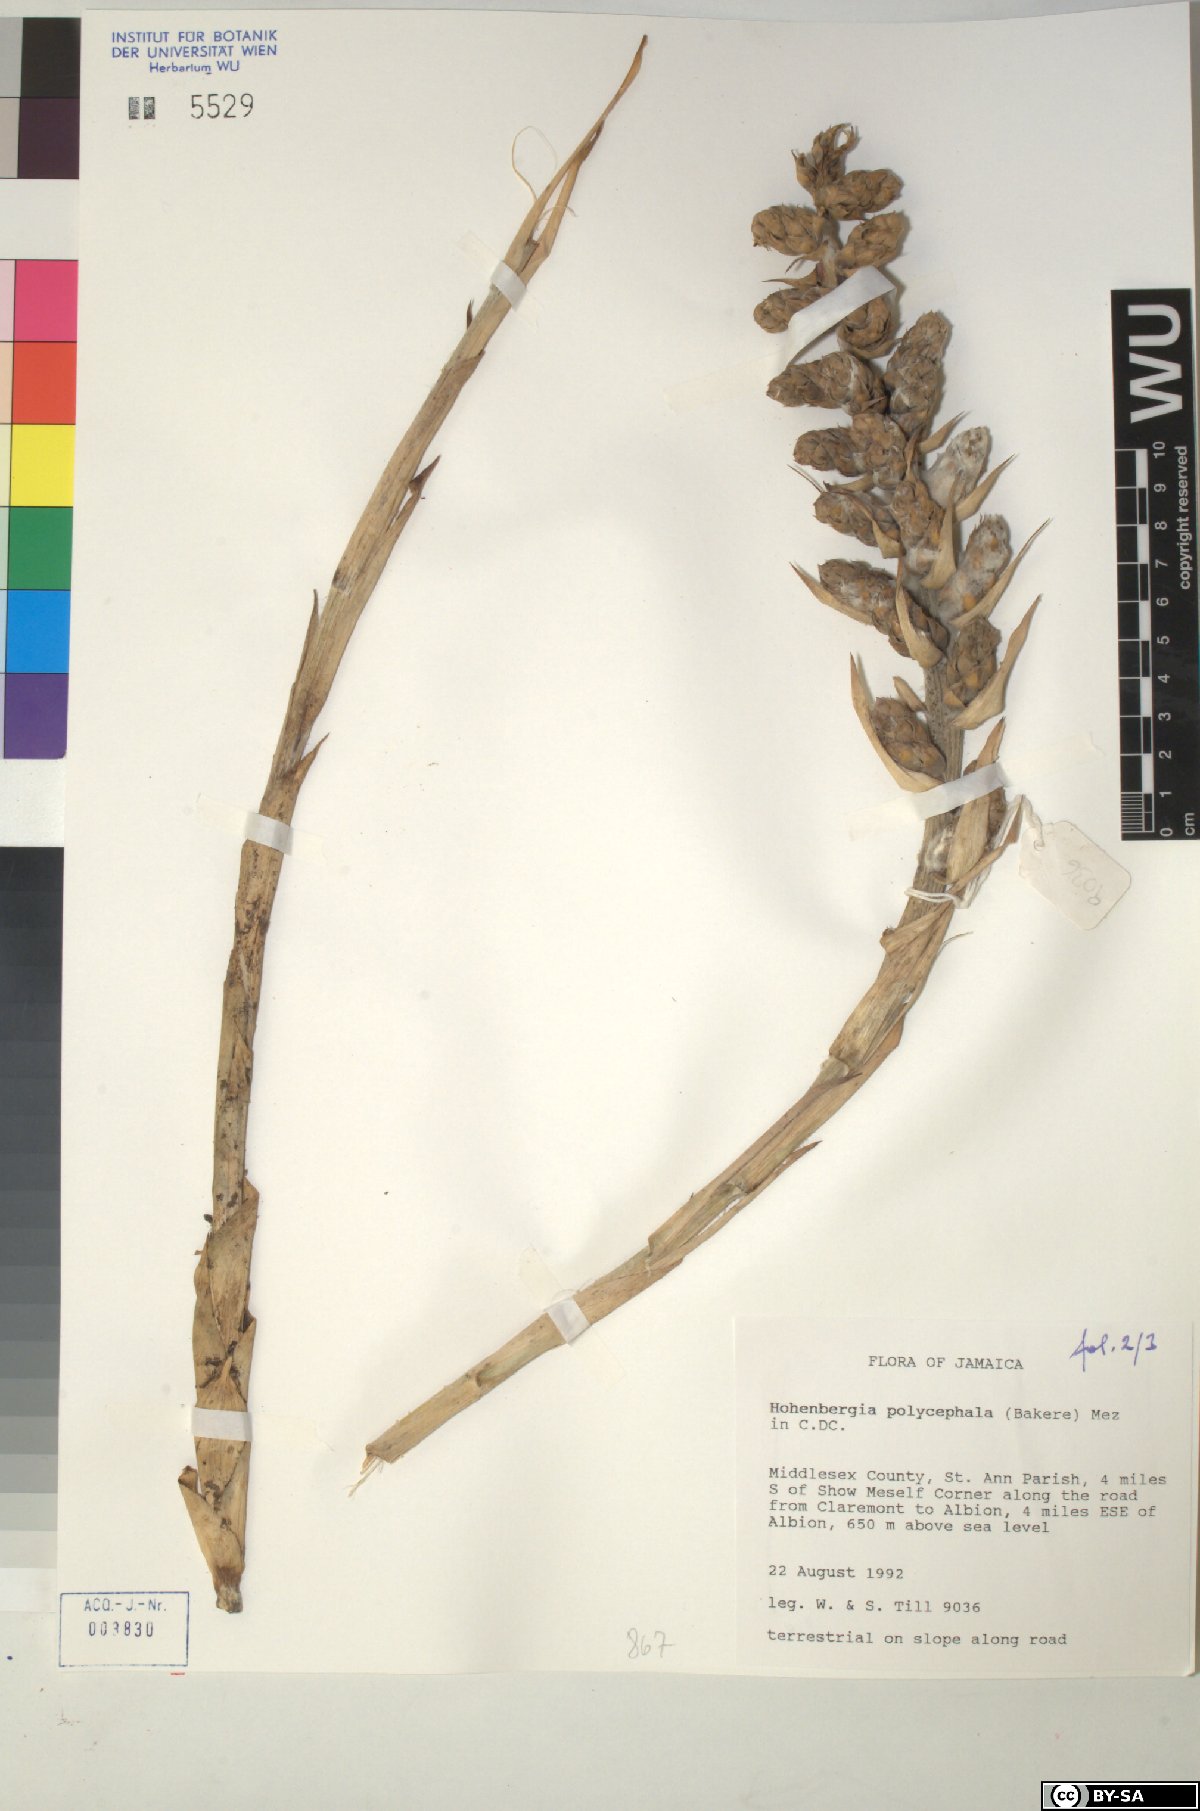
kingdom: Plantae
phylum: Tracheophyta
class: Liliopsida
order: Poales
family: Bromeliaceae
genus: Wittmackia
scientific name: Wittmackia polycephala
